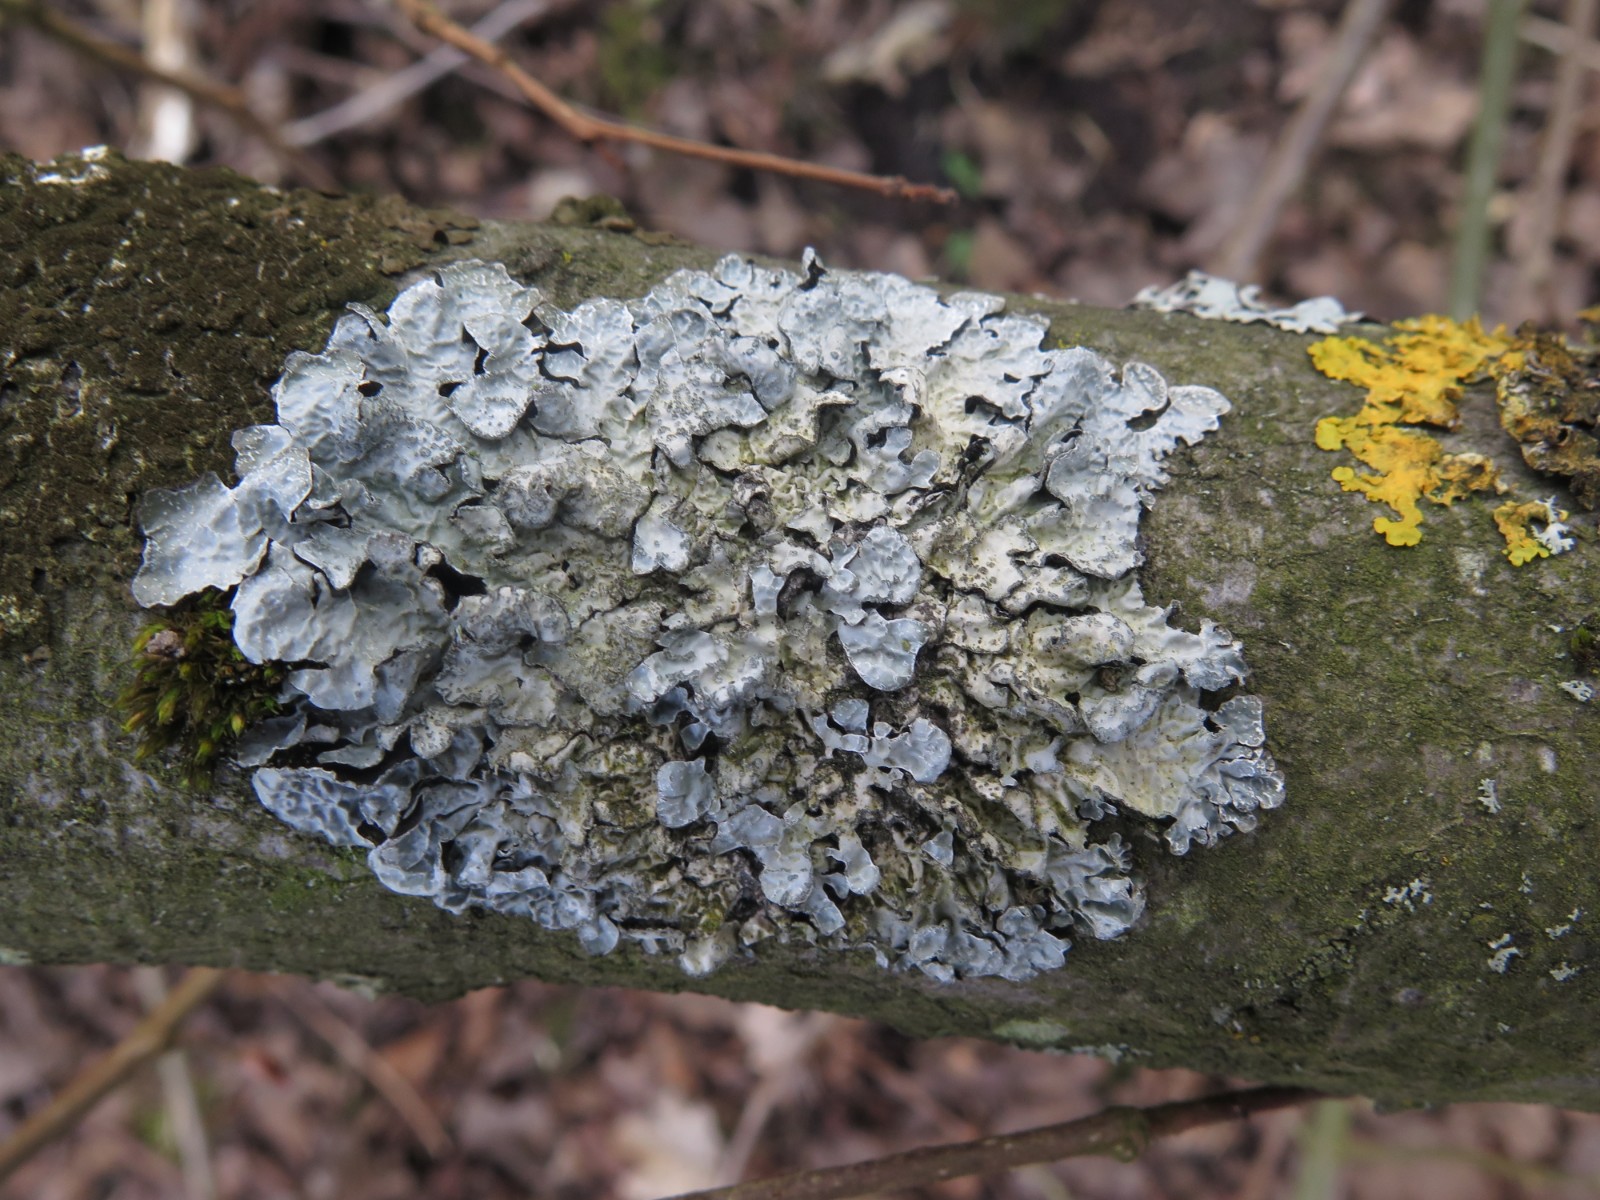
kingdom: Fungi
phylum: Ascomycota
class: Lecanoromycetes
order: Lecanorales
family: Parmeliaceae
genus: Parmelia
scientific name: Parmelia sulcata
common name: rynket skållav
